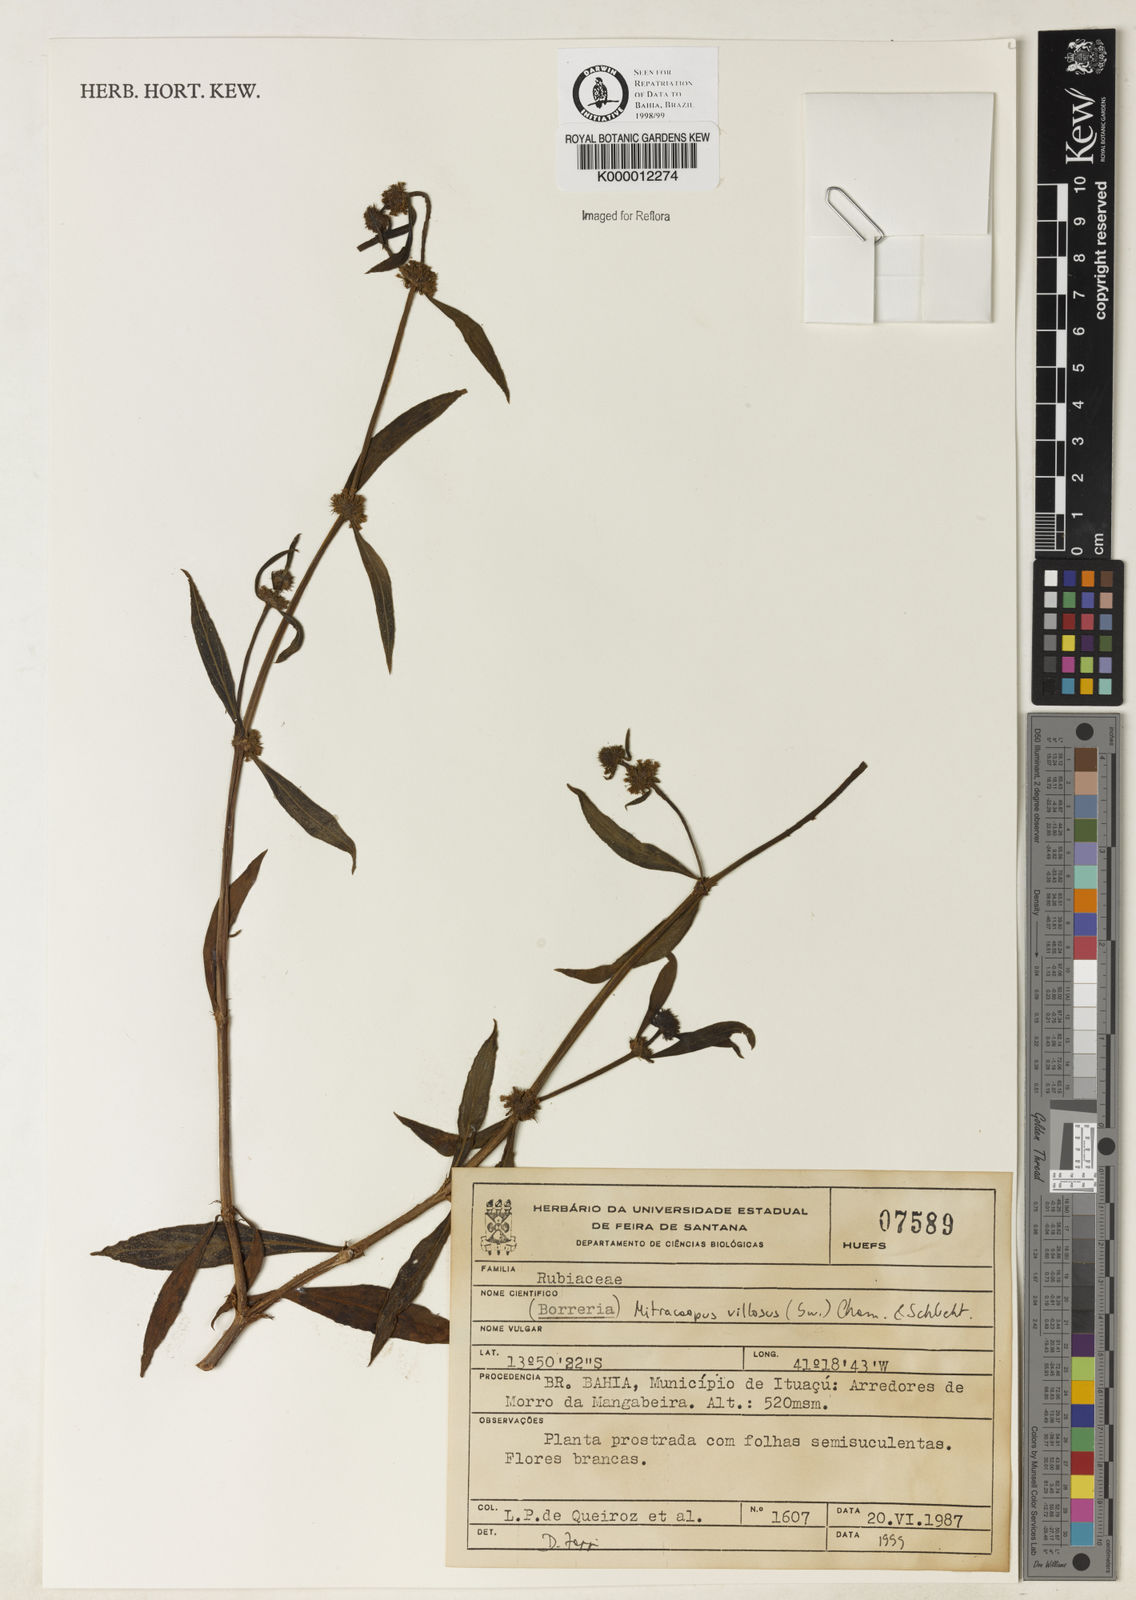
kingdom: Plantae
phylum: Tracheophyta
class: Magnoliopsida
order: Gentianales
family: Rubiaceae
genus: Mitracarpus
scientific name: Mitracarpus
